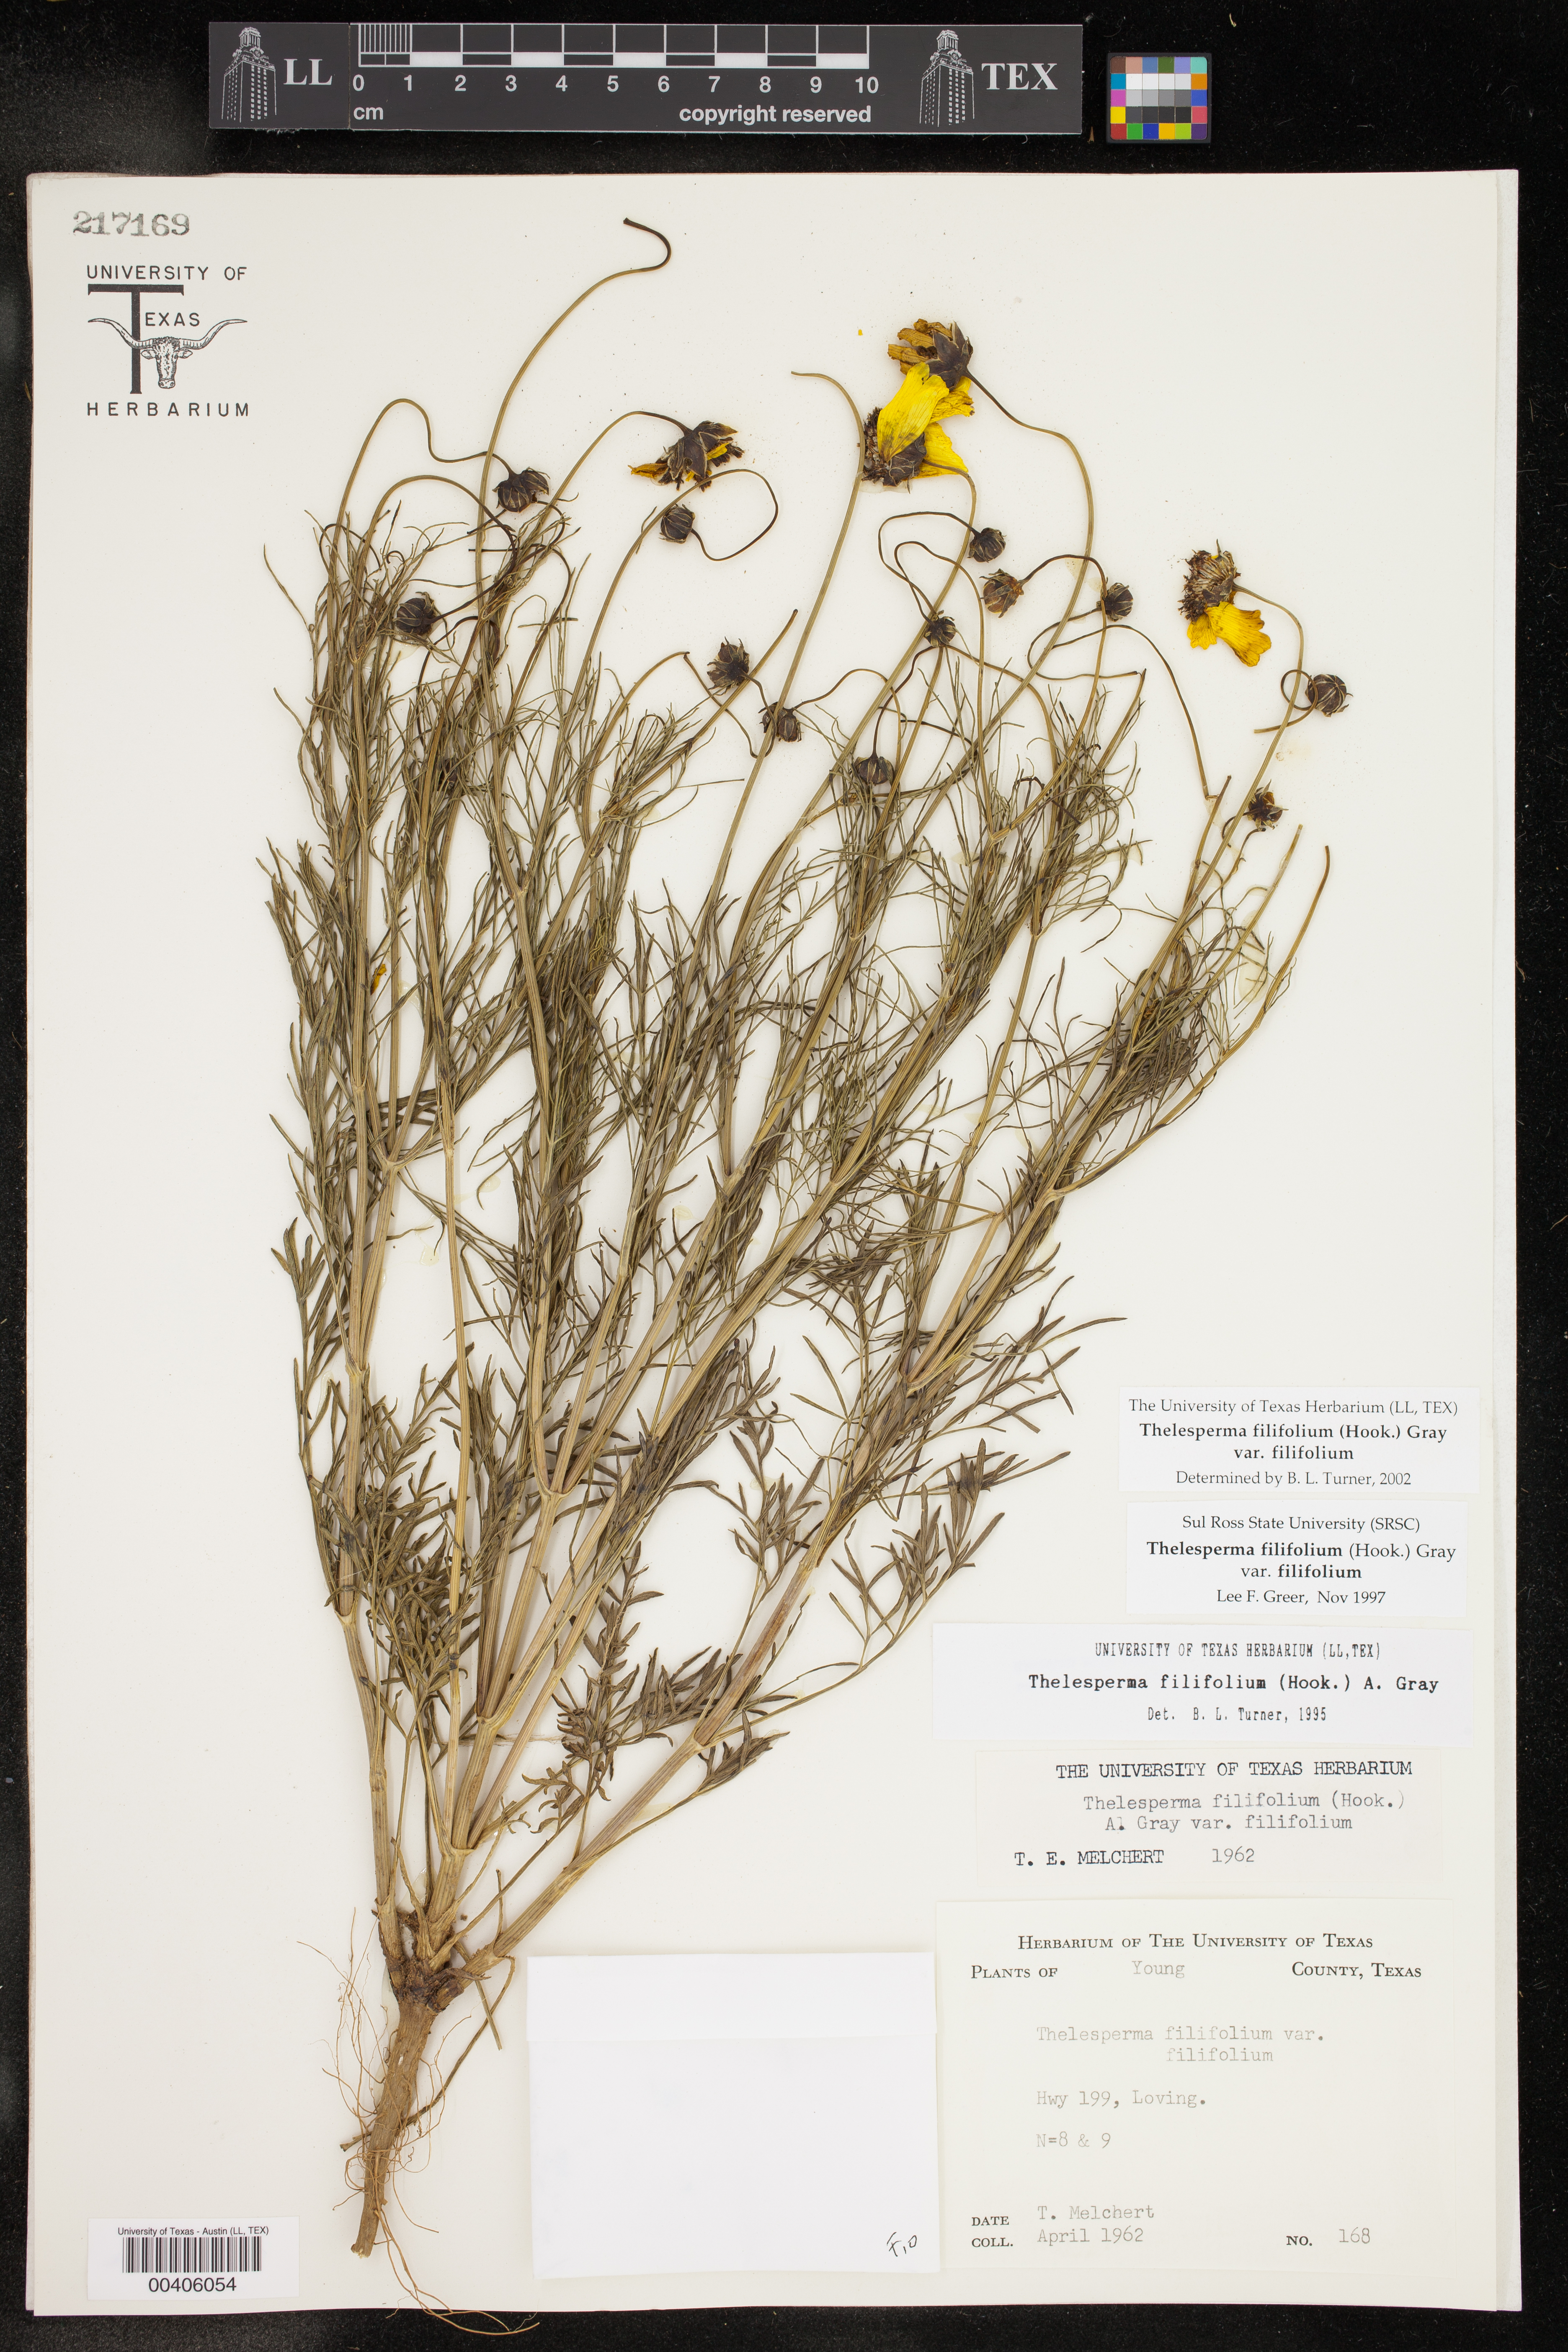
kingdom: Plantae
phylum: Tracheophyta
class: Magnoliopsida
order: Asterales
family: Asteraceae
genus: Thelesperma
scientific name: Thelesperma filifolium
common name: Stiff greenthread
